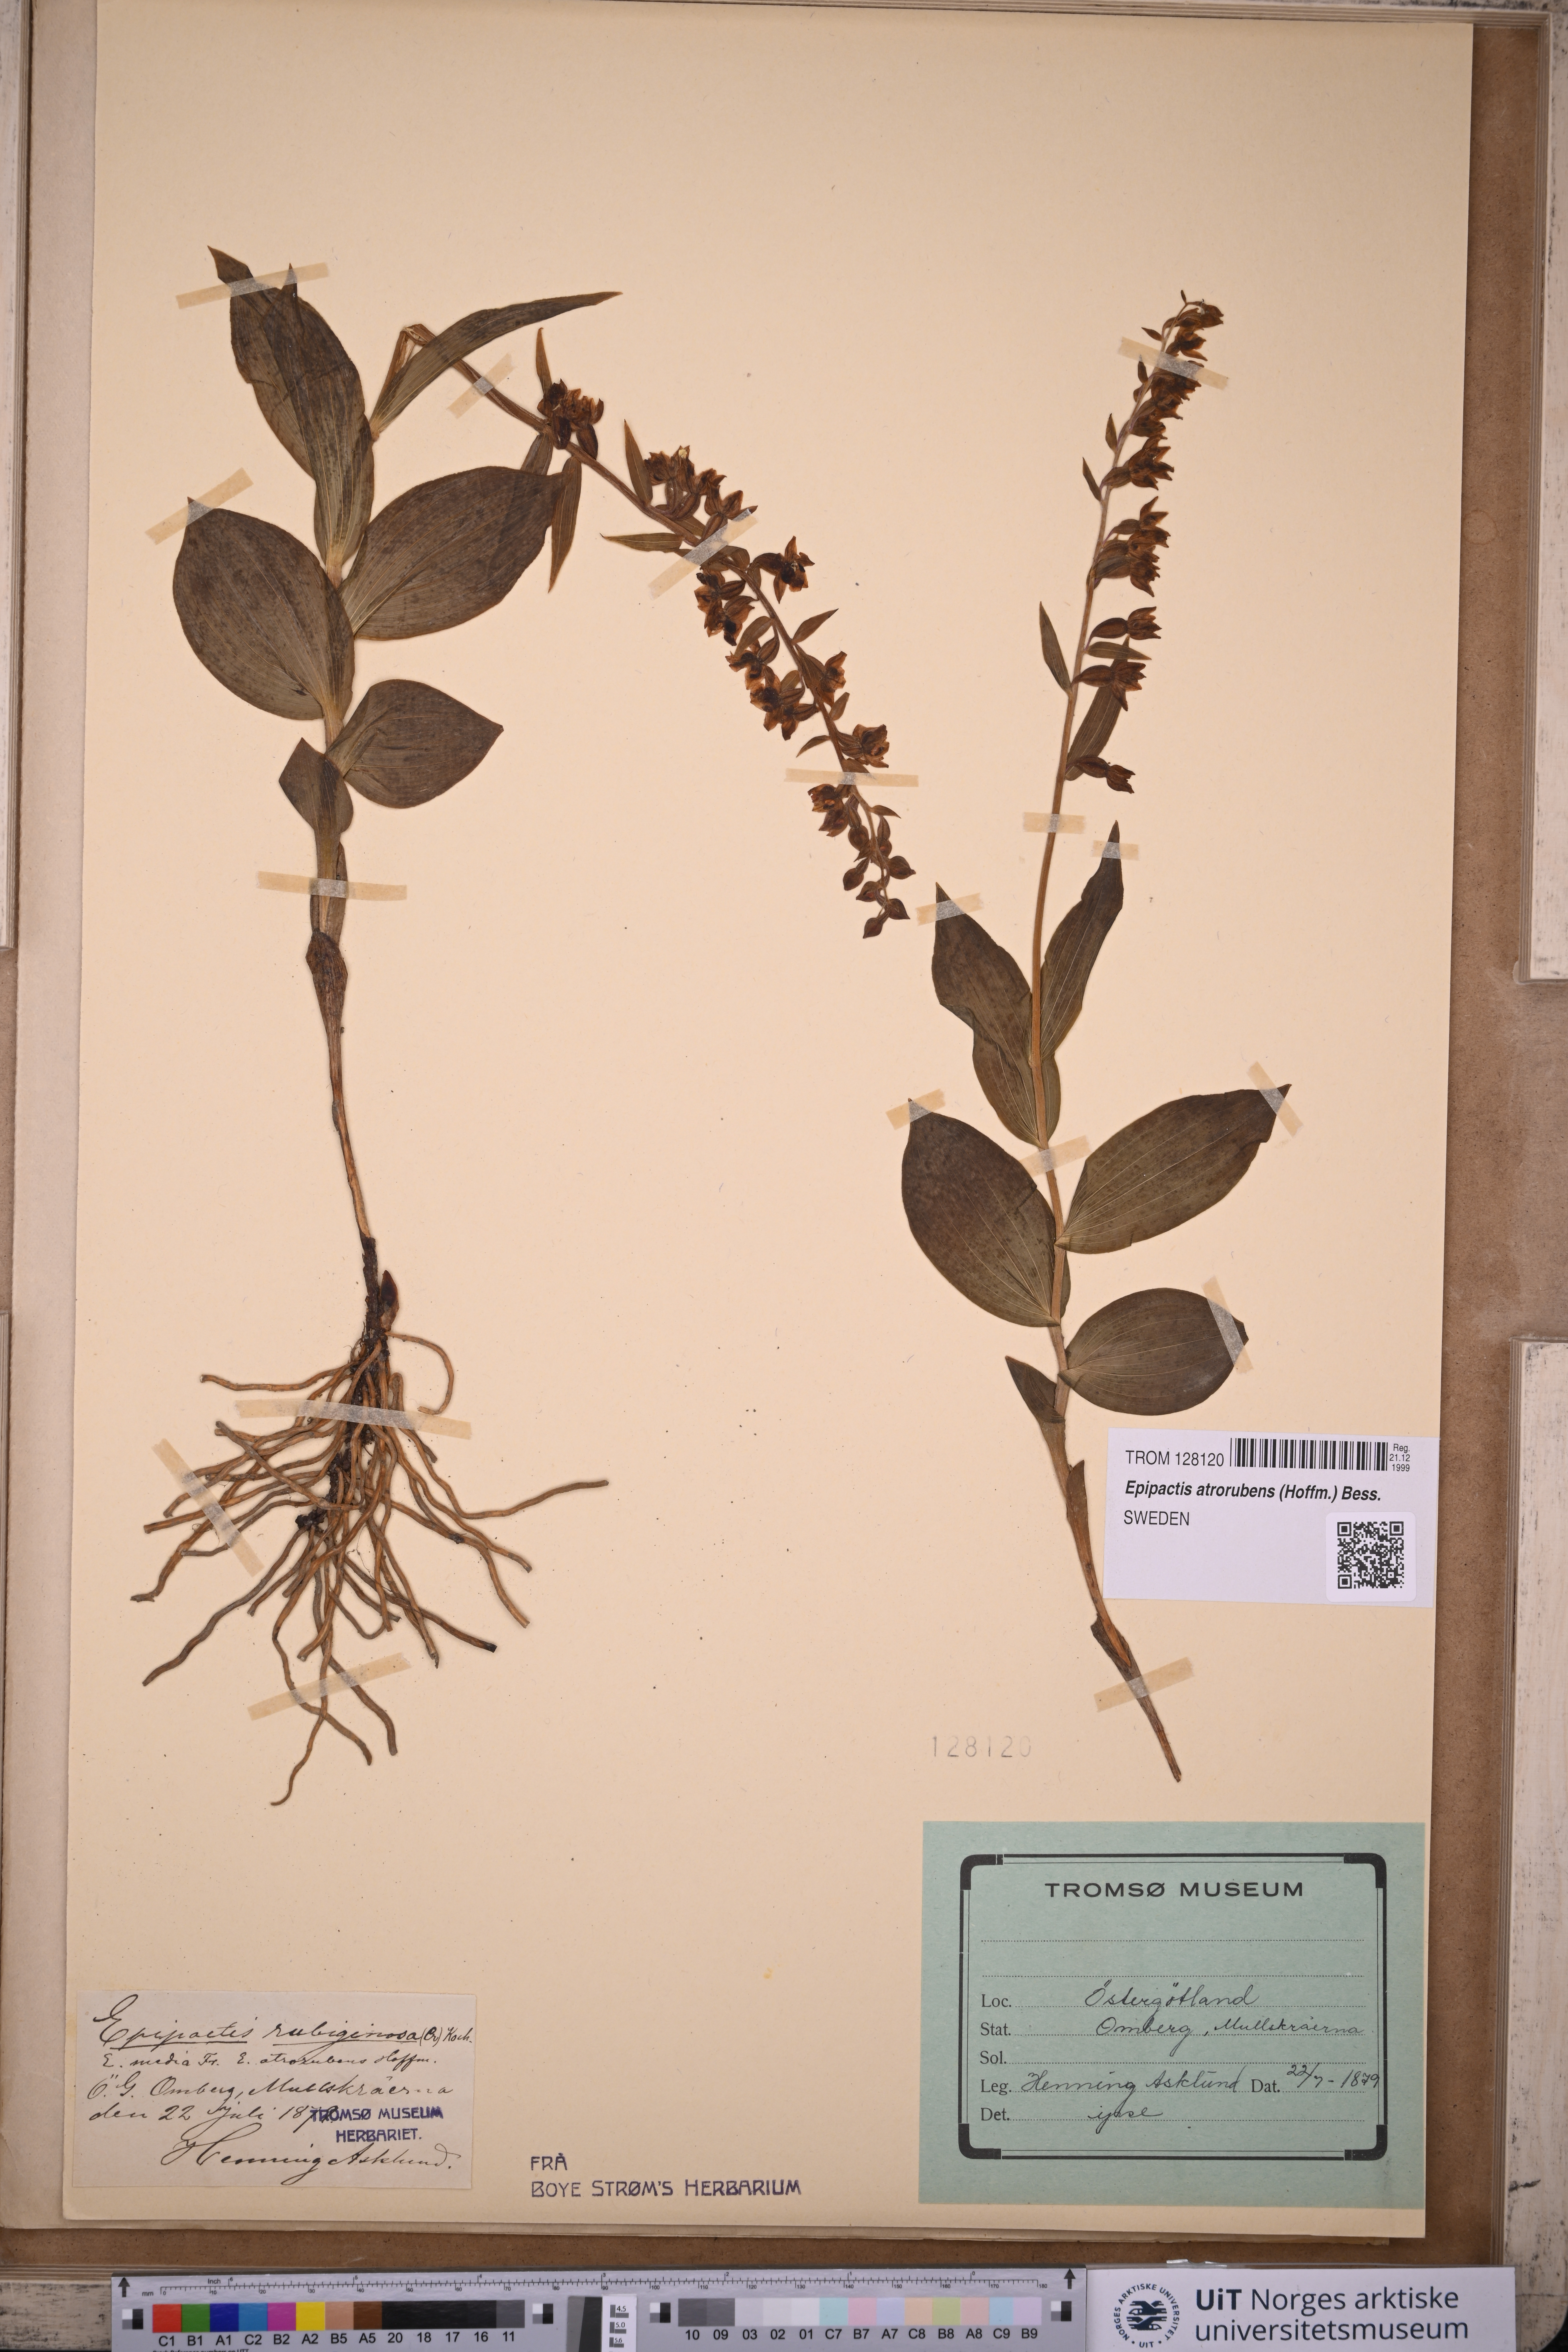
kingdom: Plantae
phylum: Tracheophyta
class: Liliopsida
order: Asparagales
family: Orchidaceae
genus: Epipactis
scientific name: Epipactis atrorubens
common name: Dark-red helleborine
